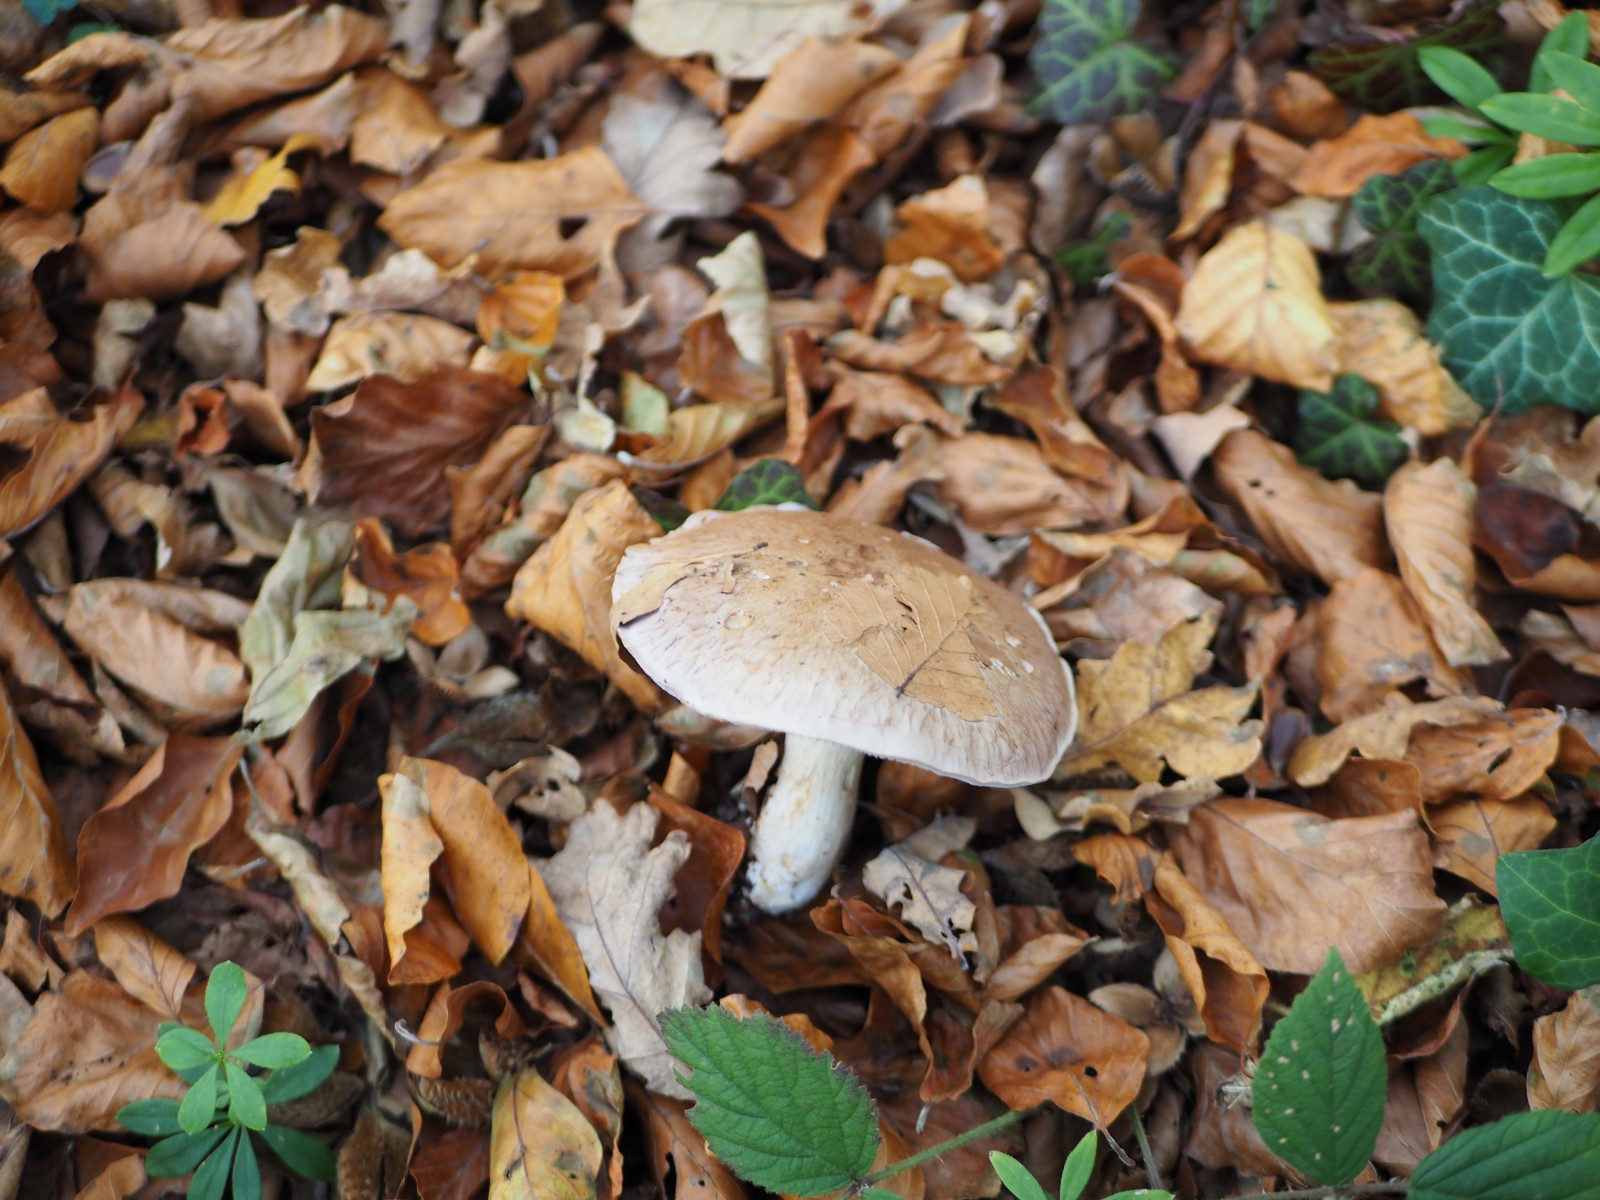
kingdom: Fungi
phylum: Basidiomycota
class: Agaricomycetes
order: Agaricales
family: Cortinariaceae
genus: Cortinarius
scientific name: Cortinarius largus
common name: violetrandet slørhat
